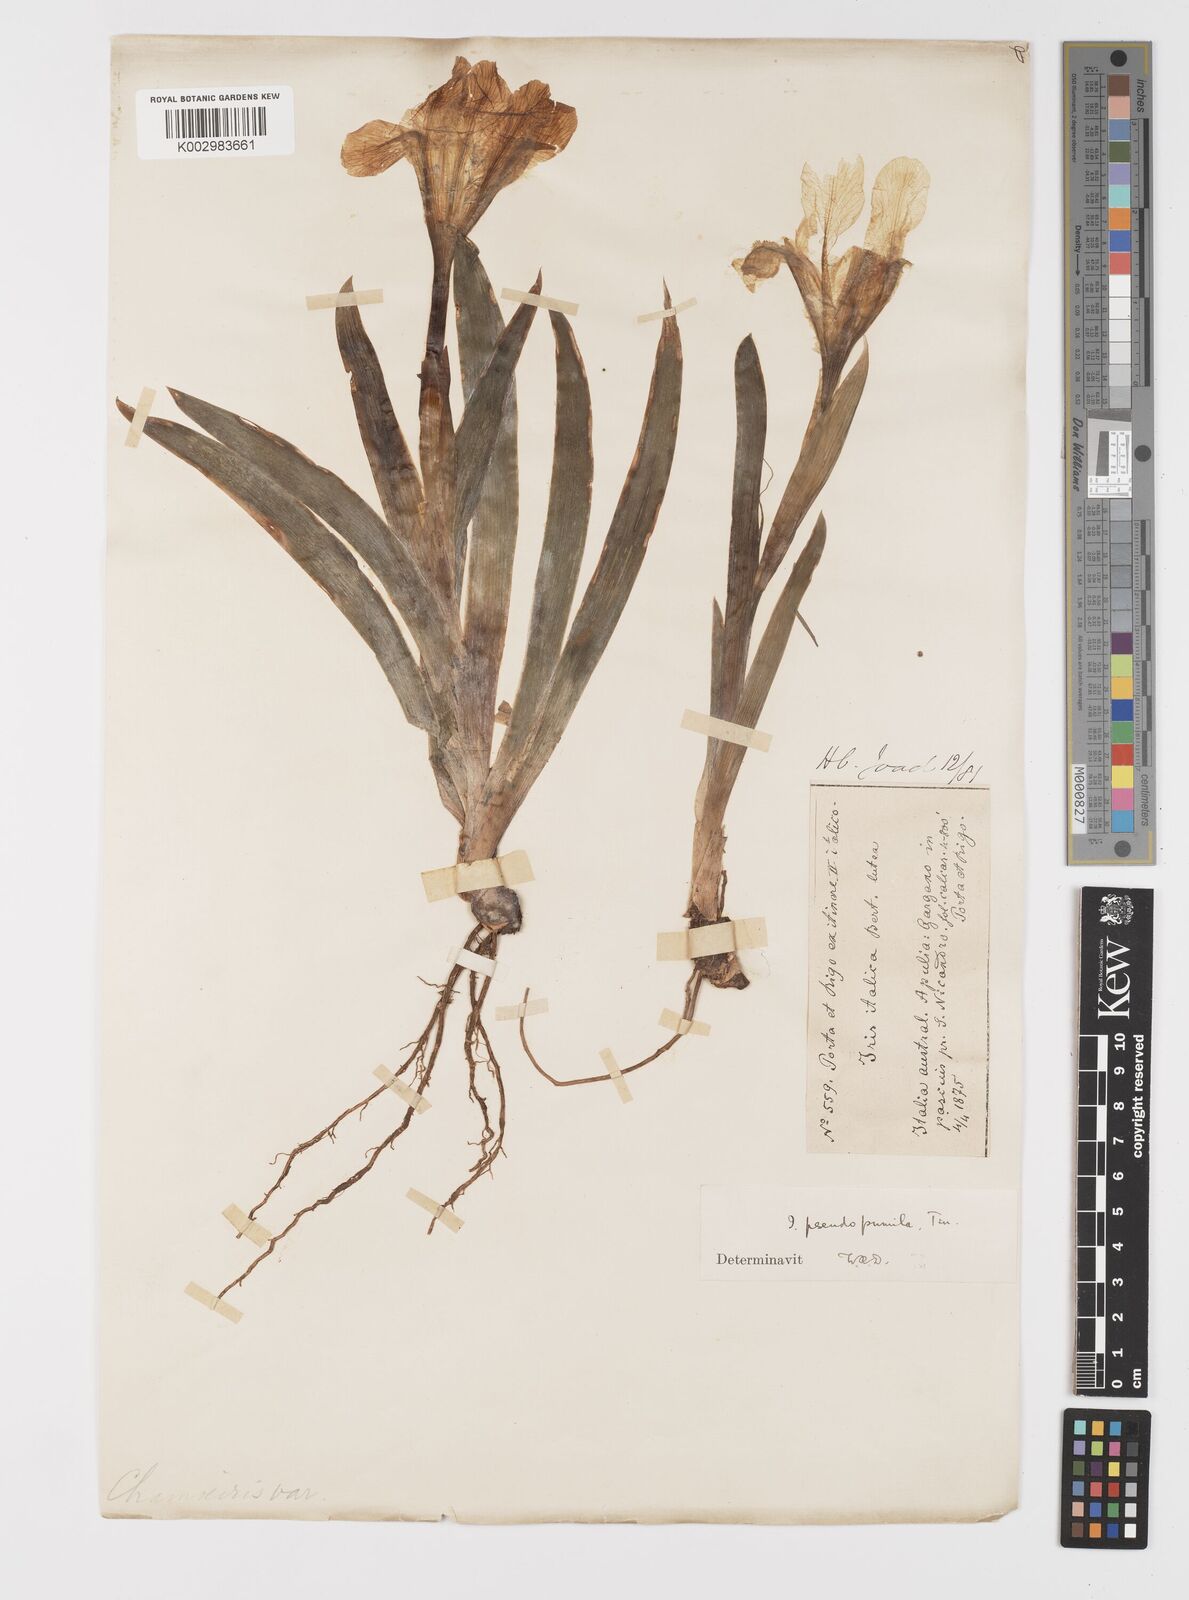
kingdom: Plantae
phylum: Tracheophyta
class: Liliopsida
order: Asparagales
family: Iridaceae
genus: Iris
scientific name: Iris pseudopumila
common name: Southern dwarf iris
